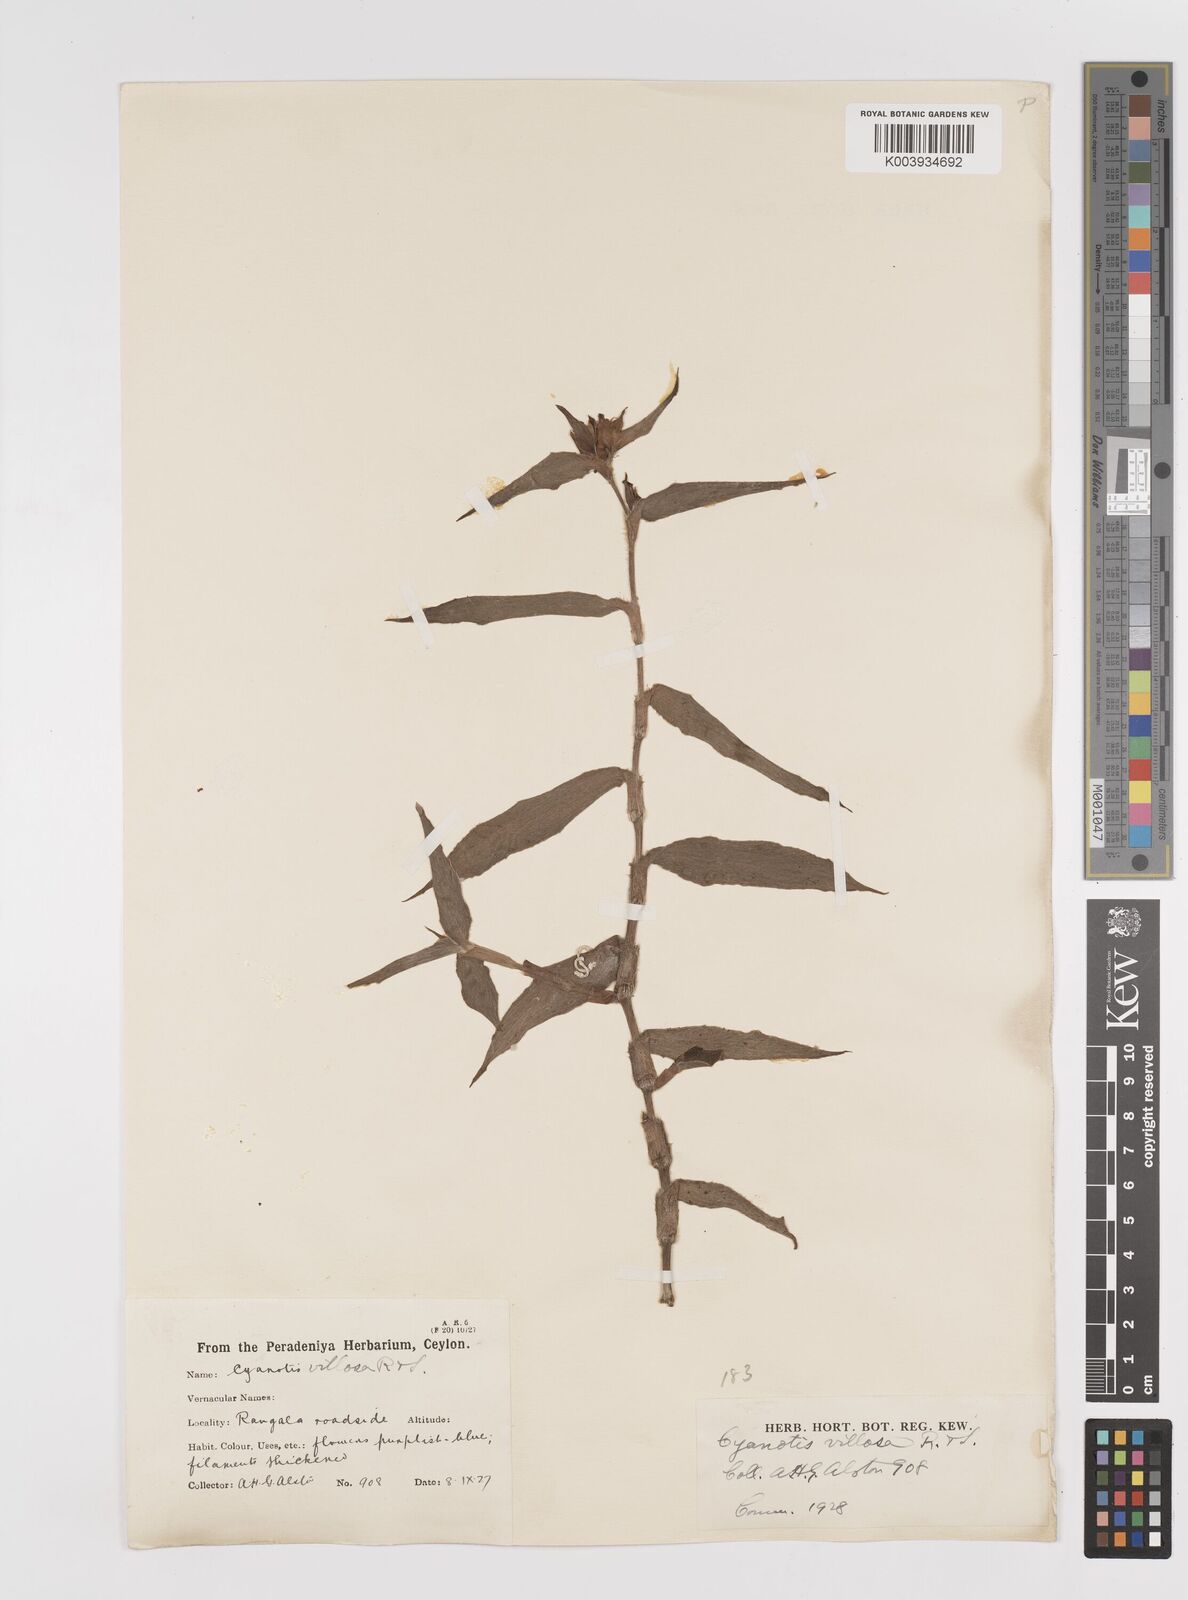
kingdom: Plantae
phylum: Tracheophyta
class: Liliopsida
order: Commelinales
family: Commelinaceae
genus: Cyanotis
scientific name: Cyanotis villosa
